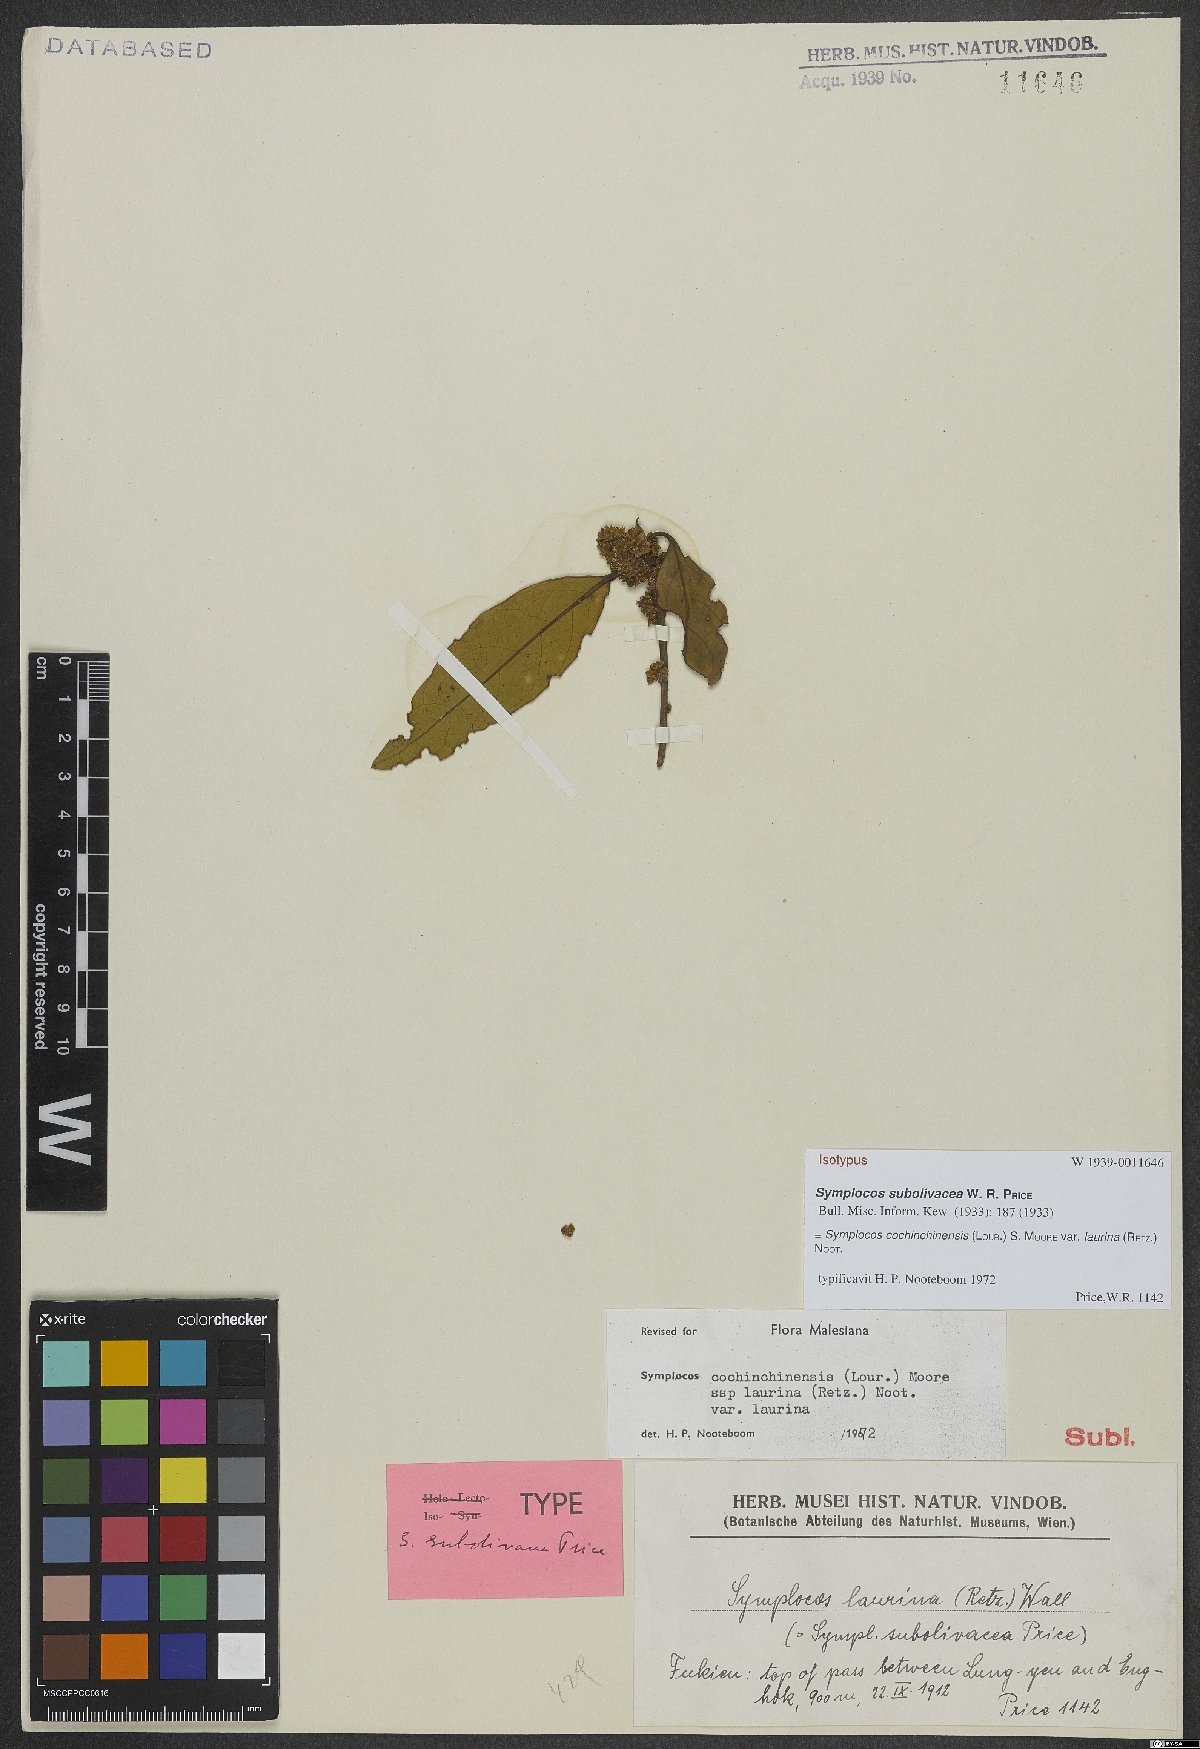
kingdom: Plantae
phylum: Tracheophyta
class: Magnoliopsida
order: Ericales
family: Symplocaceae
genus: Symplocos
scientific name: Symplocos acuminata
